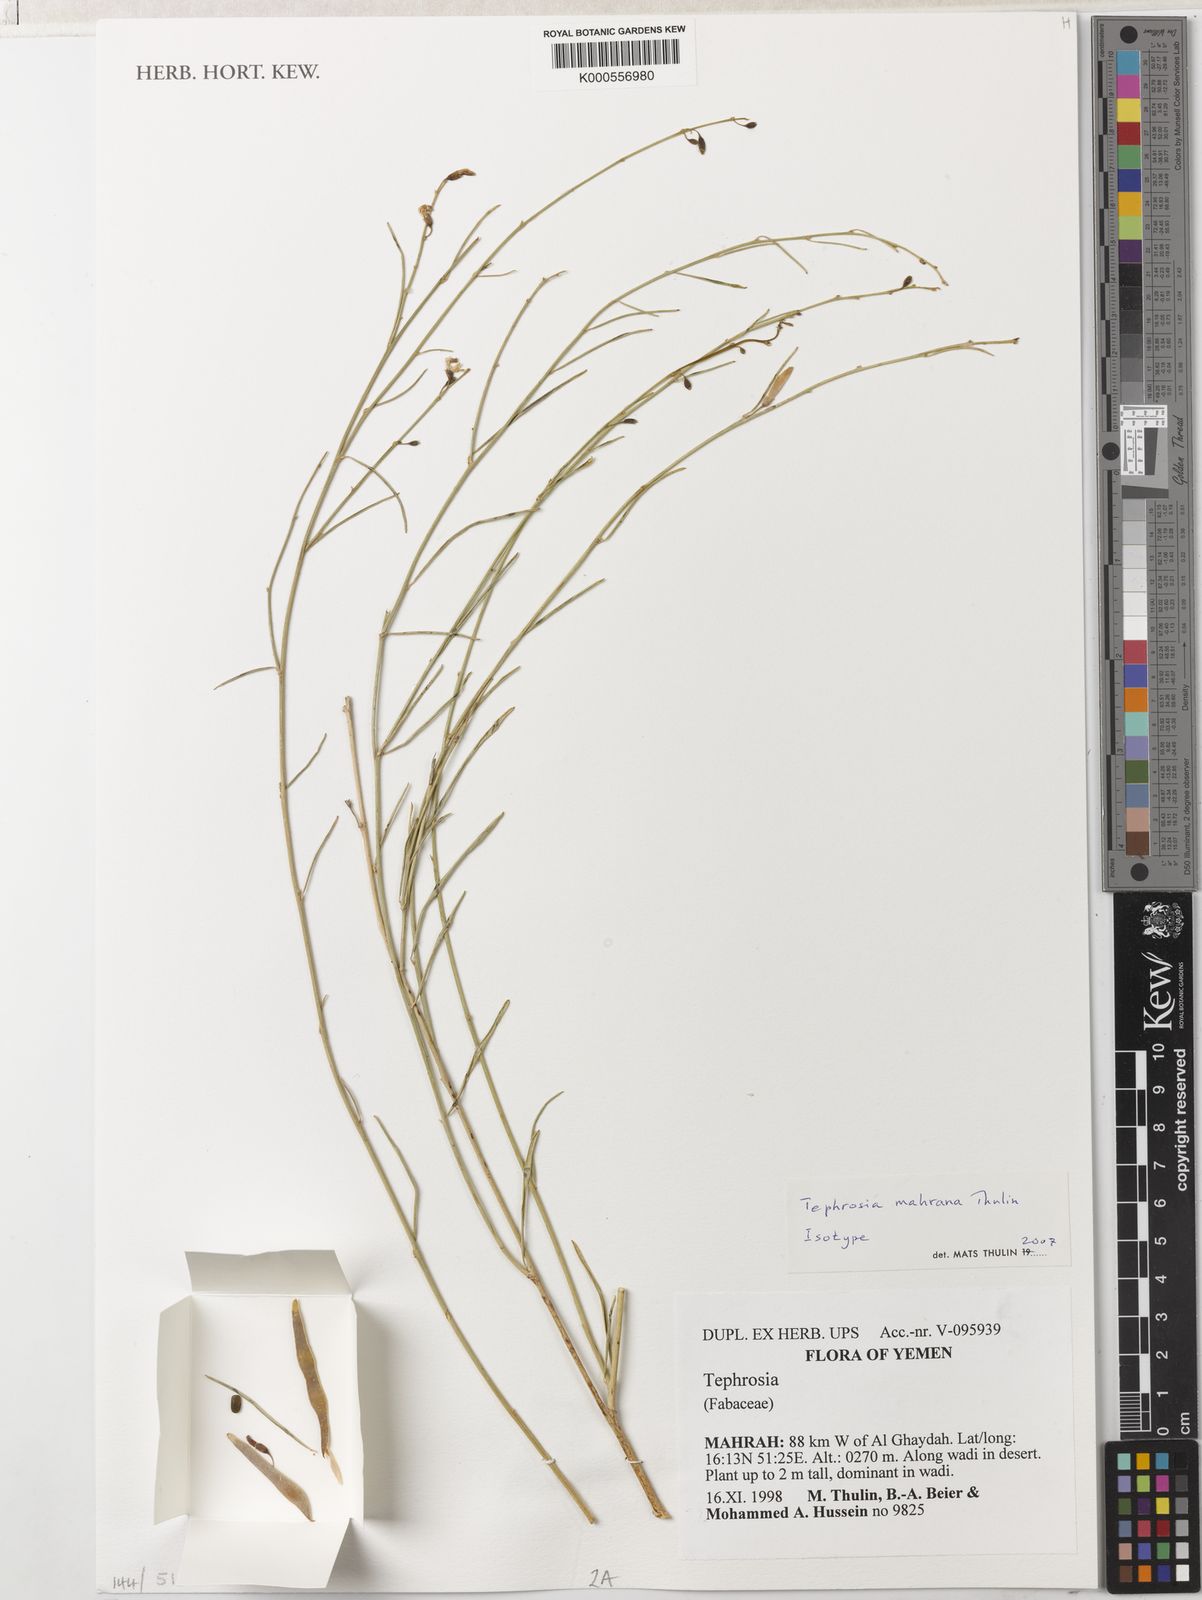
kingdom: Plantae
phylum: Tracheophyta
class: Magnoliopsida
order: Fabales
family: Fabaceae
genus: Tephrosia
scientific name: Tephrosia mahrana
